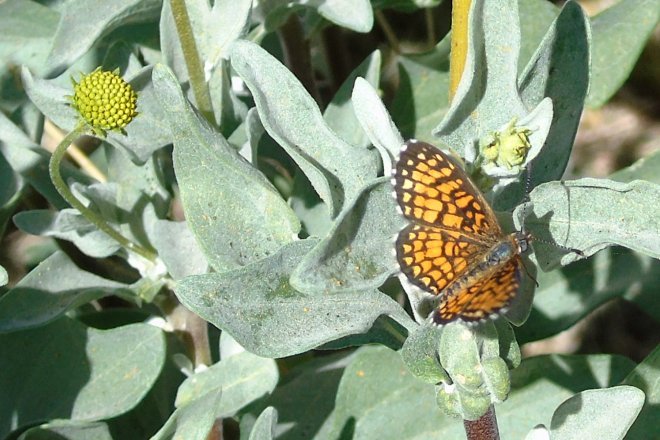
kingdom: Animalia
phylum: Arthropoda
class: Insecta
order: Lepidoptera
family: Nymphalidae
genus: Texola
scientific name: Texola elada
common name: Elada Checkerspot
